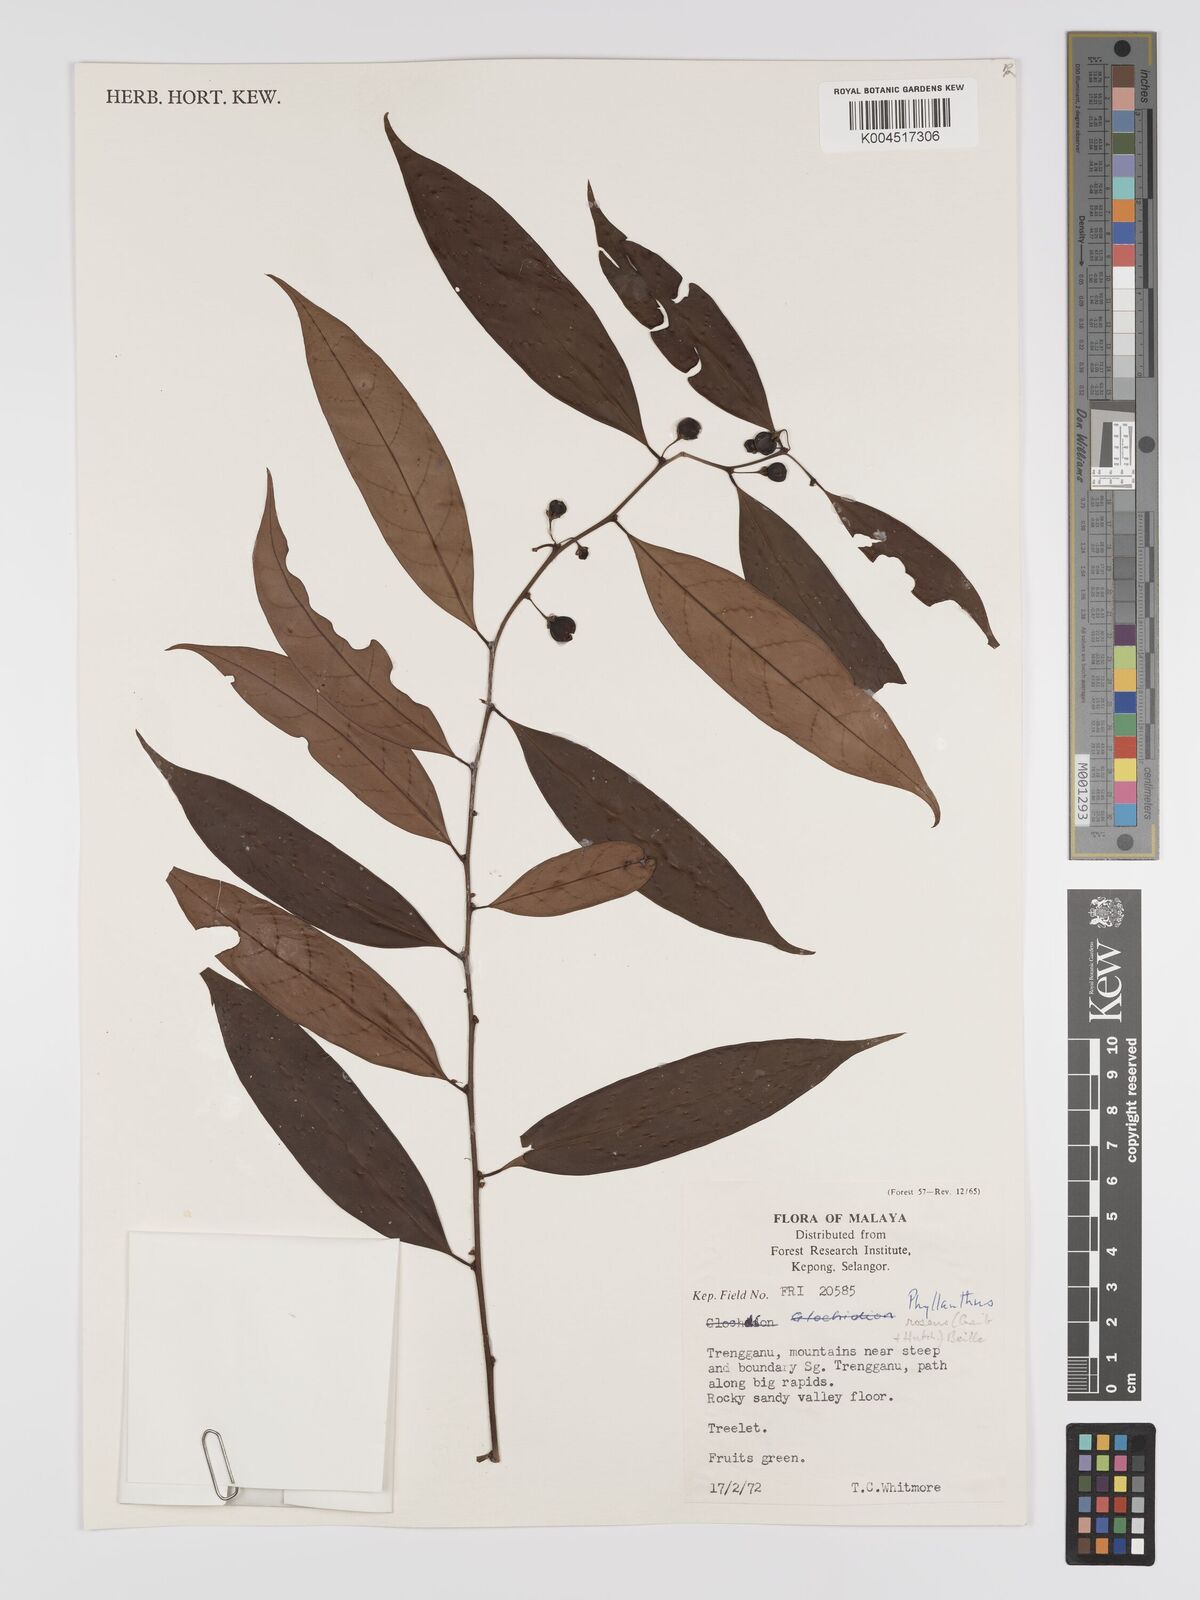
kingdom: Plantae
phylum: Tracheophyta
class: Magnoliopsida
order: Malpighiales
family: Phyllanthaceae
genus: Phyllanthus
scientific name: Phyllanthus roseus
